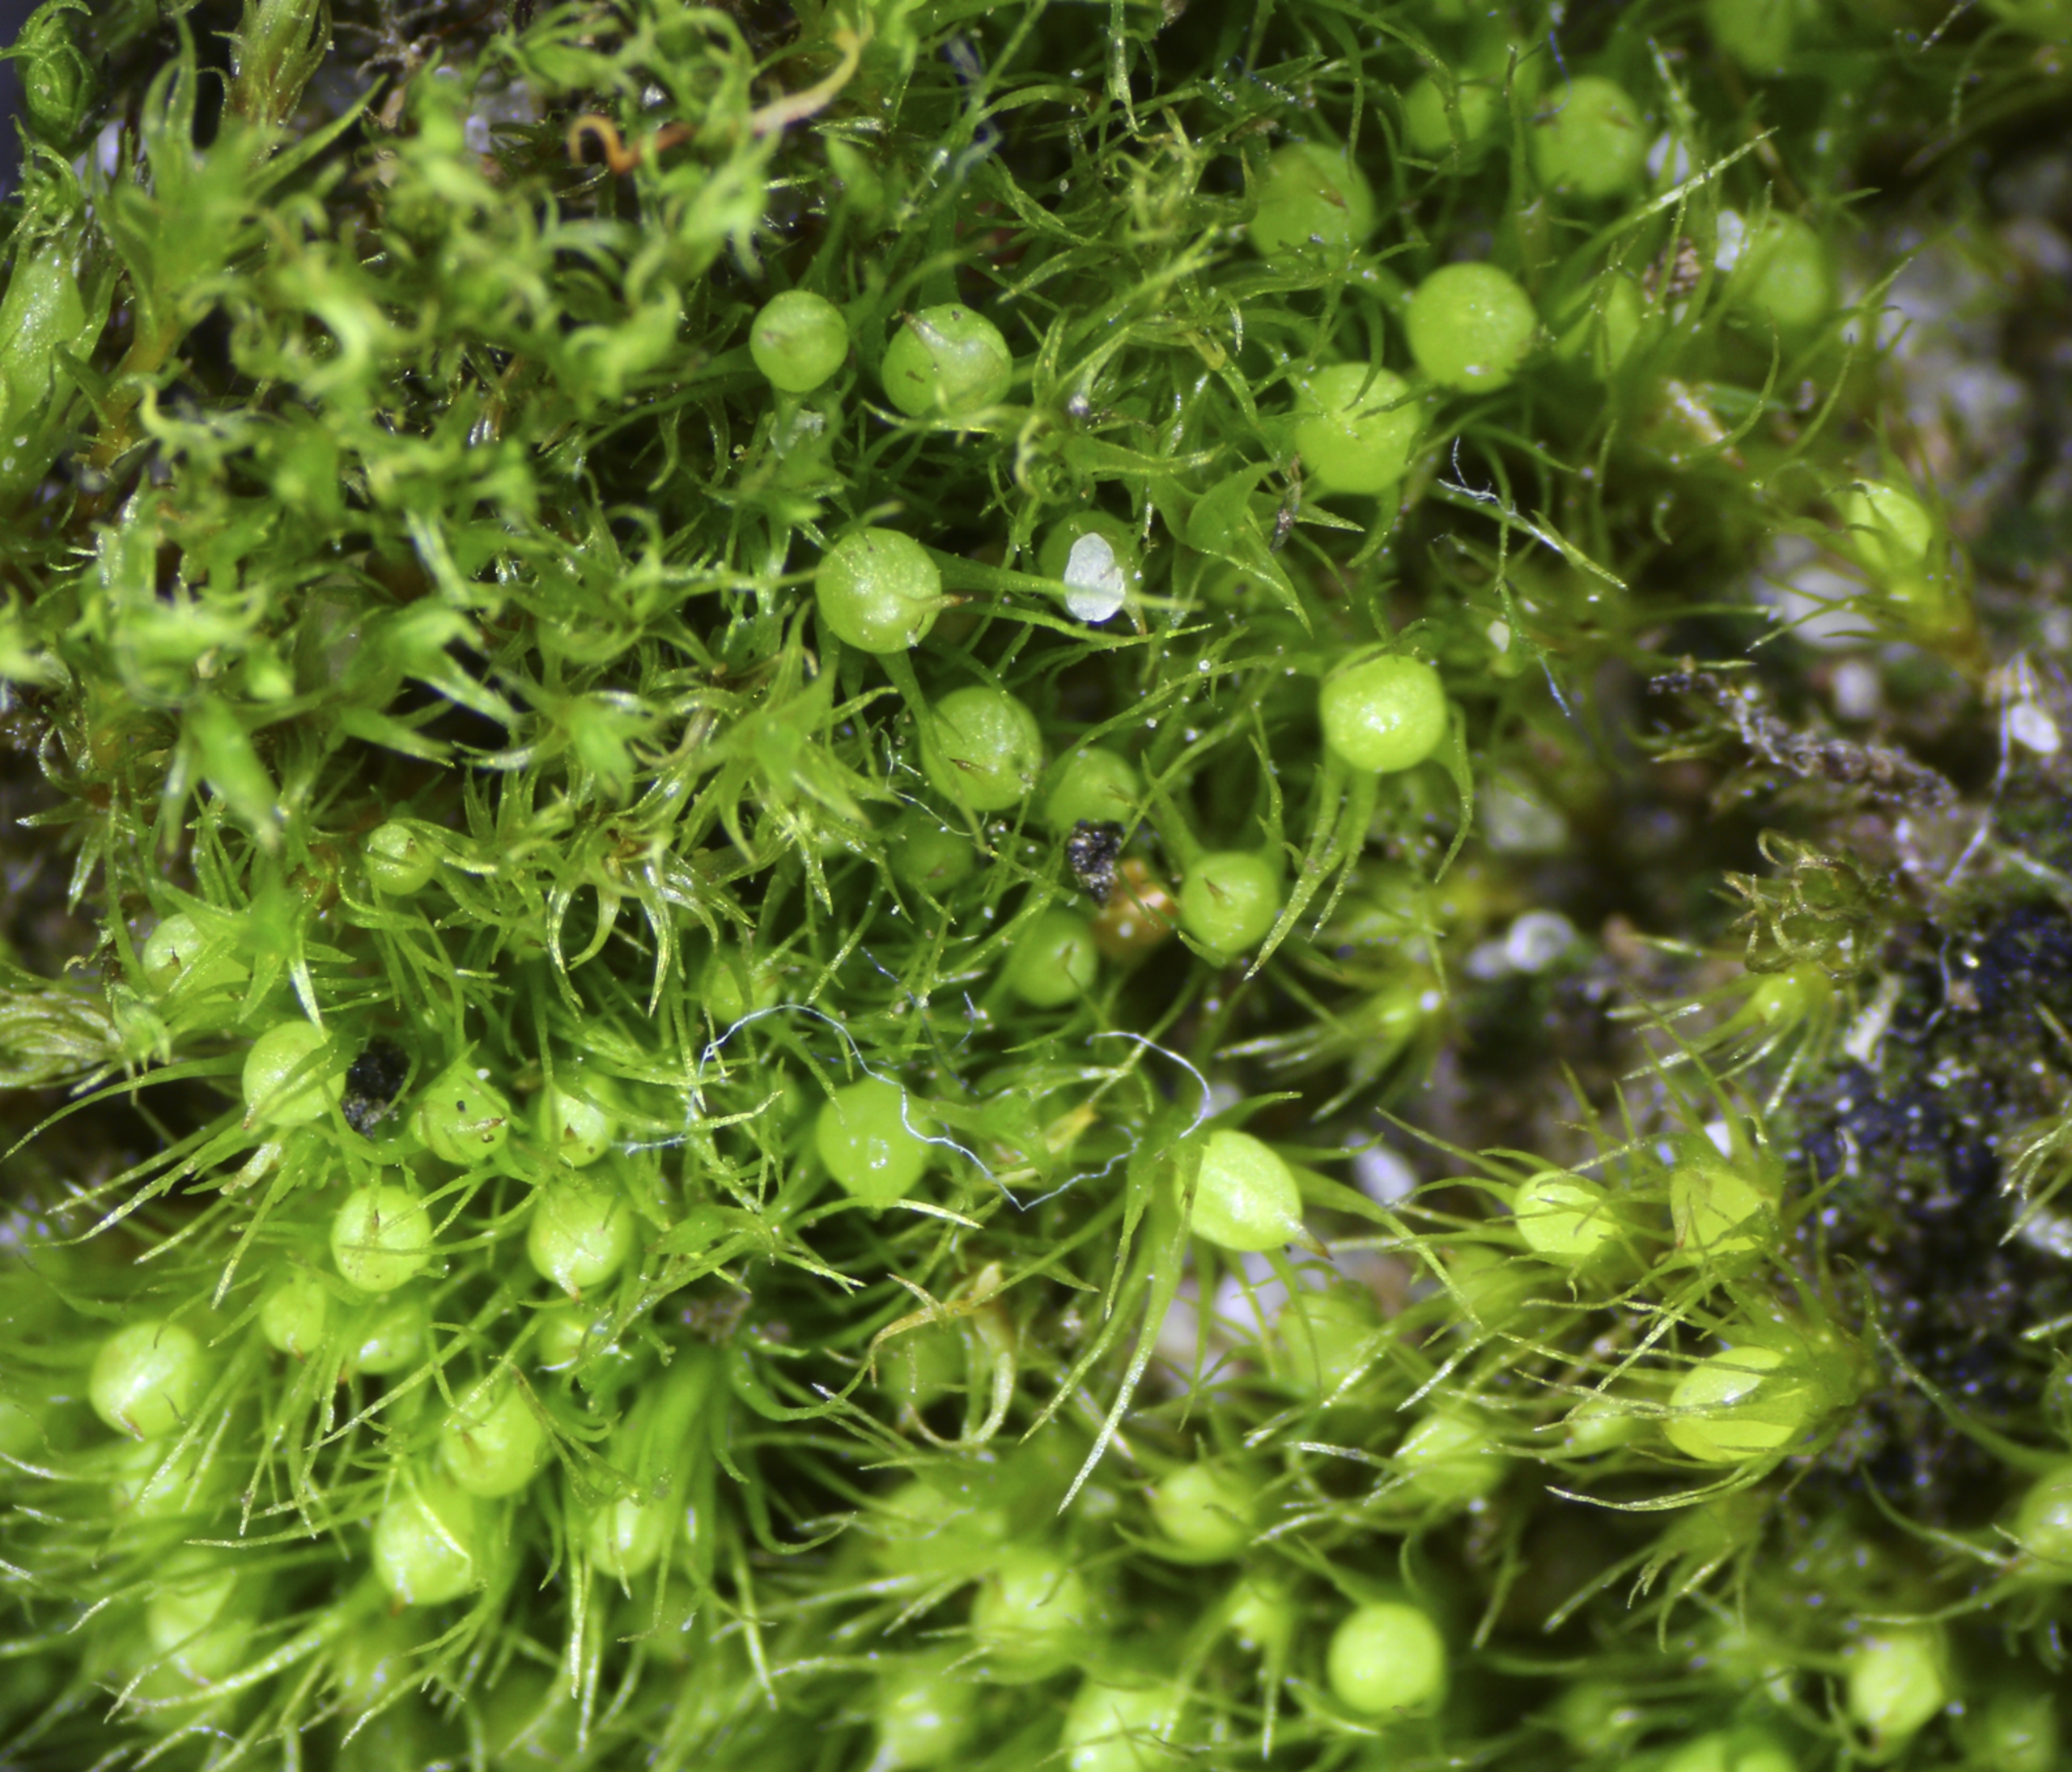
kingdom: Plantae
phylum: Bryophyta
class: Bryopsida
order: Dicranales
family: Ditrichaceae
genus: Pleuridium
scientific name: Pleuridium acuminatum
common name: Siddende sylbladsmos
